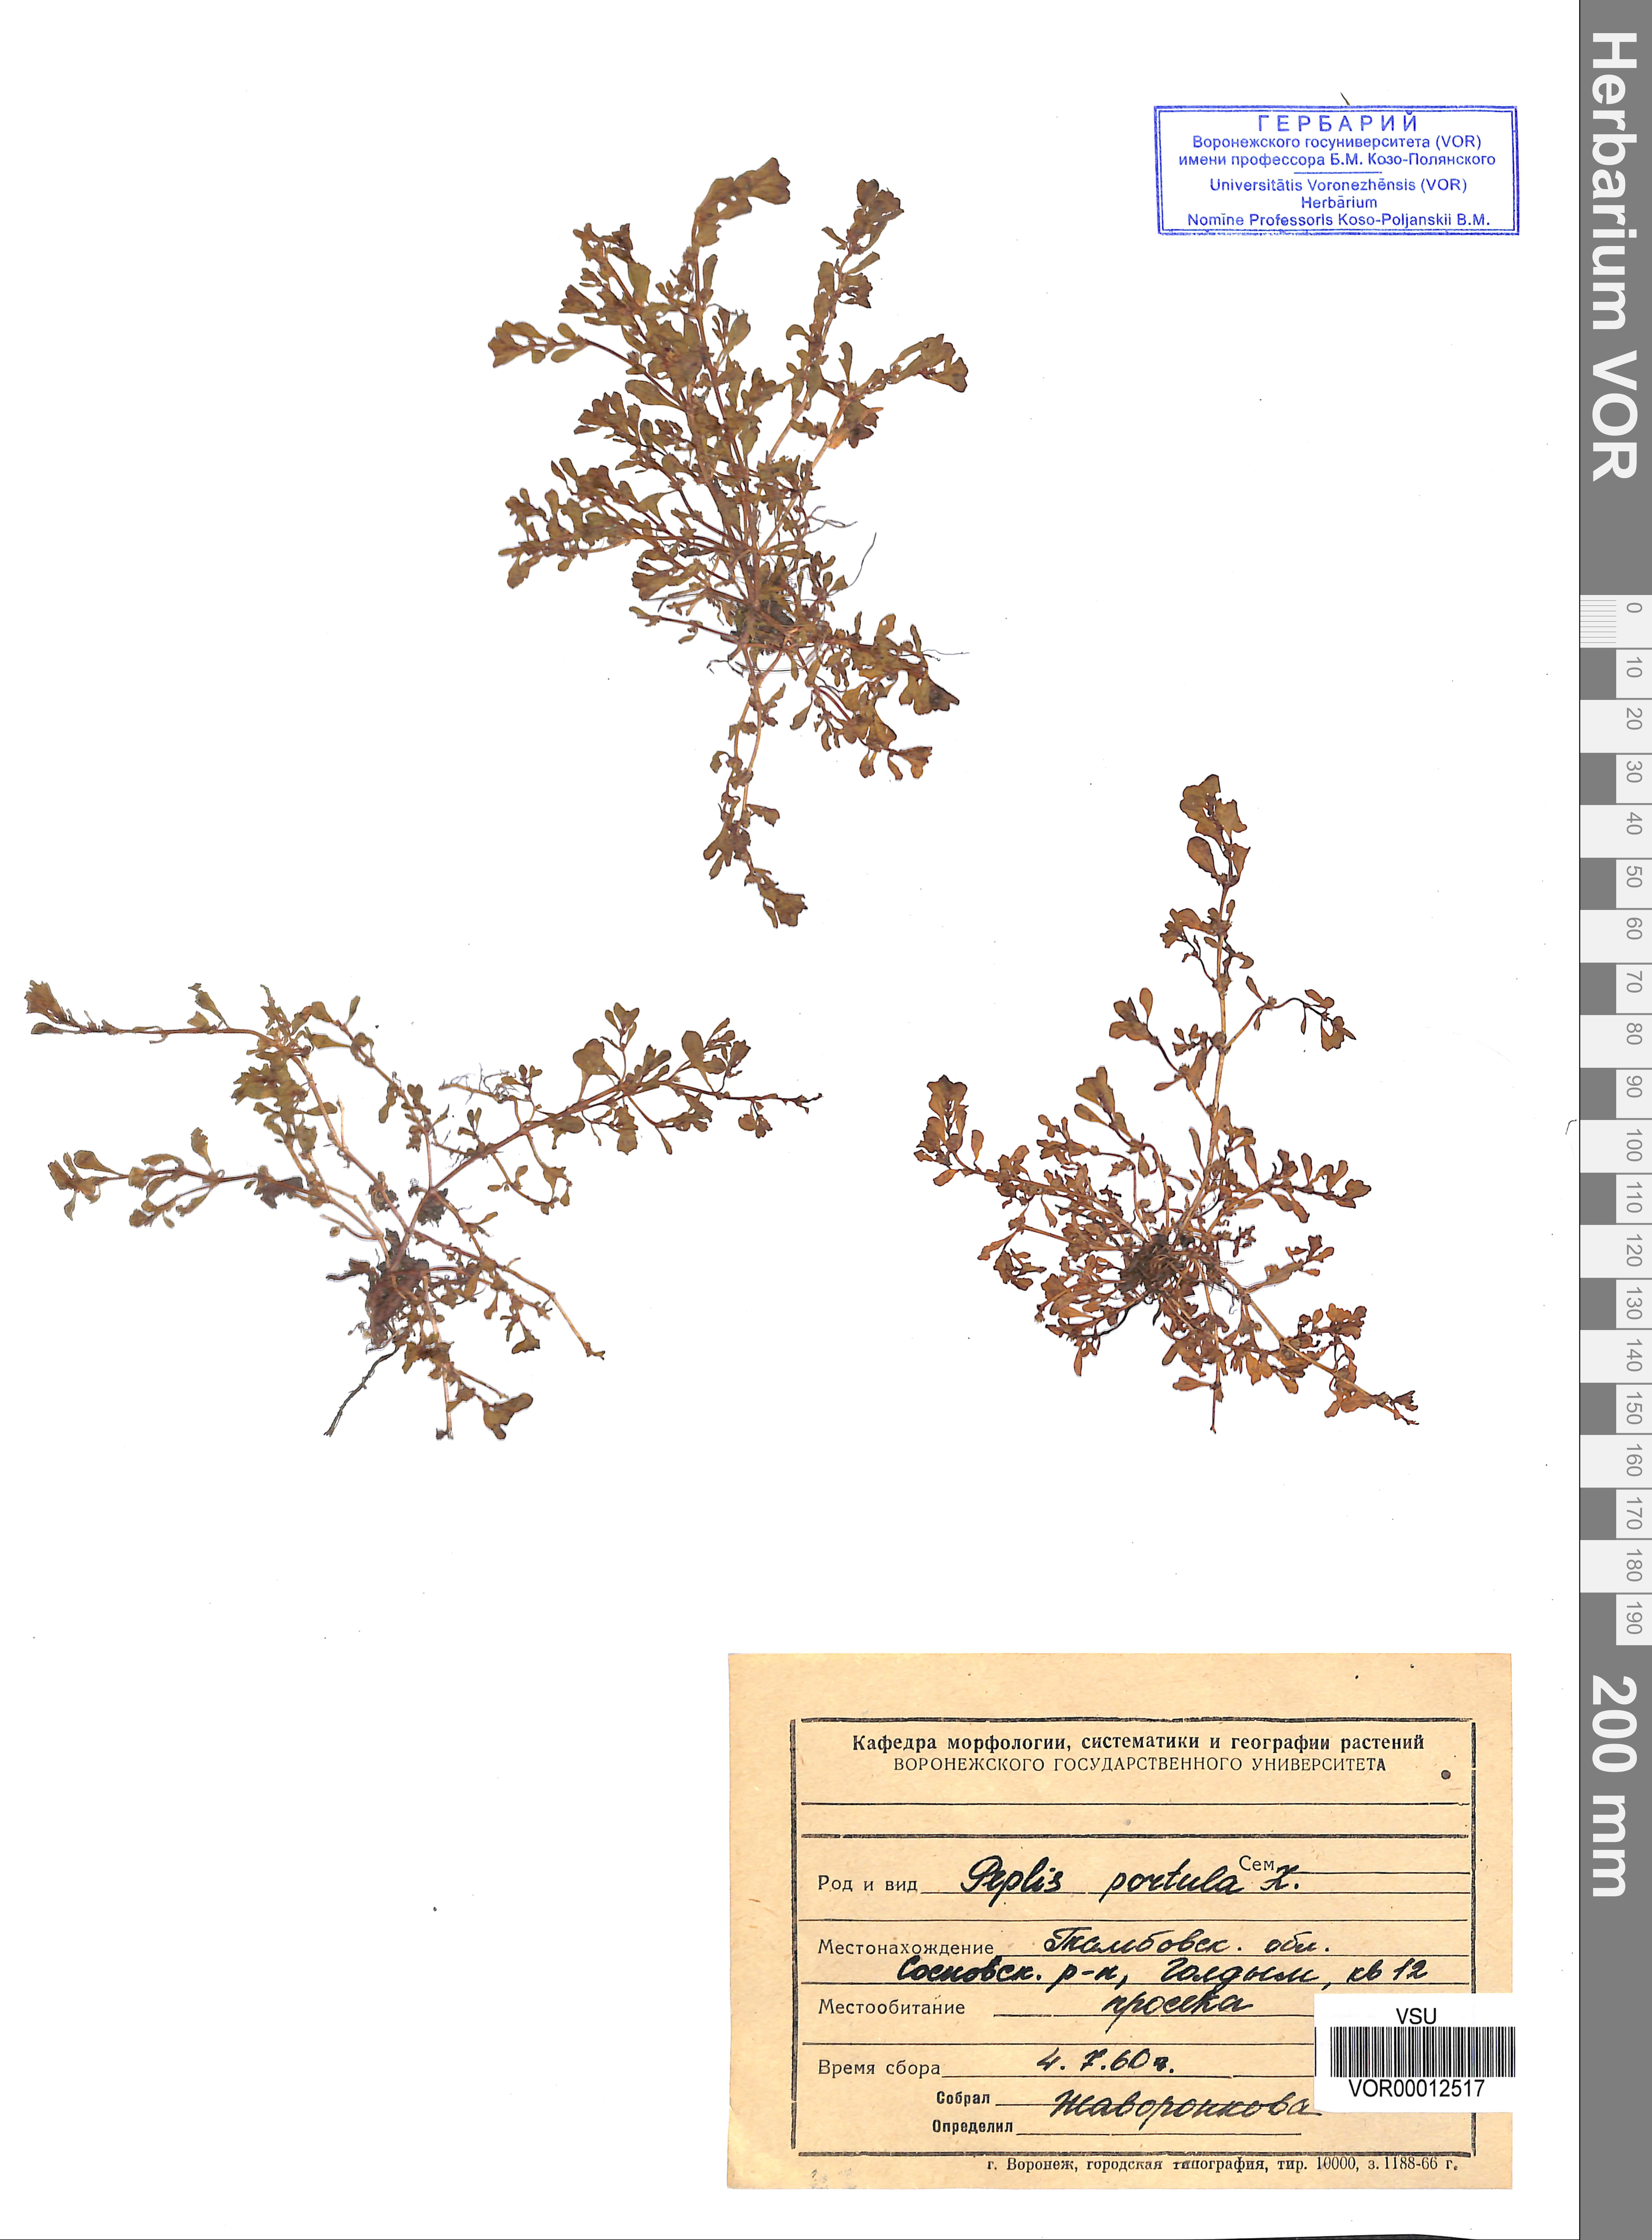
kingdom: Plantae
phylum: Tracheophyta
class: Magnoliopsida
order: Myrtales
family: Lythraceae
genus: Lythrum
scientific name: Lythrum portula
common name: Water purslane
